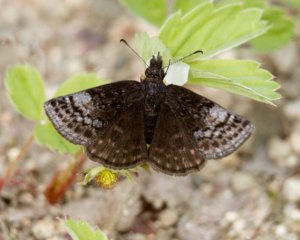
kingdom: Animalia
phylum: Arthropoda
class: Insecta
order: Lepidoptera
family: Hesperiidae
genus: Erynnis
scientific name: Erynnis icelus
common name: Dreamy Duskywing
